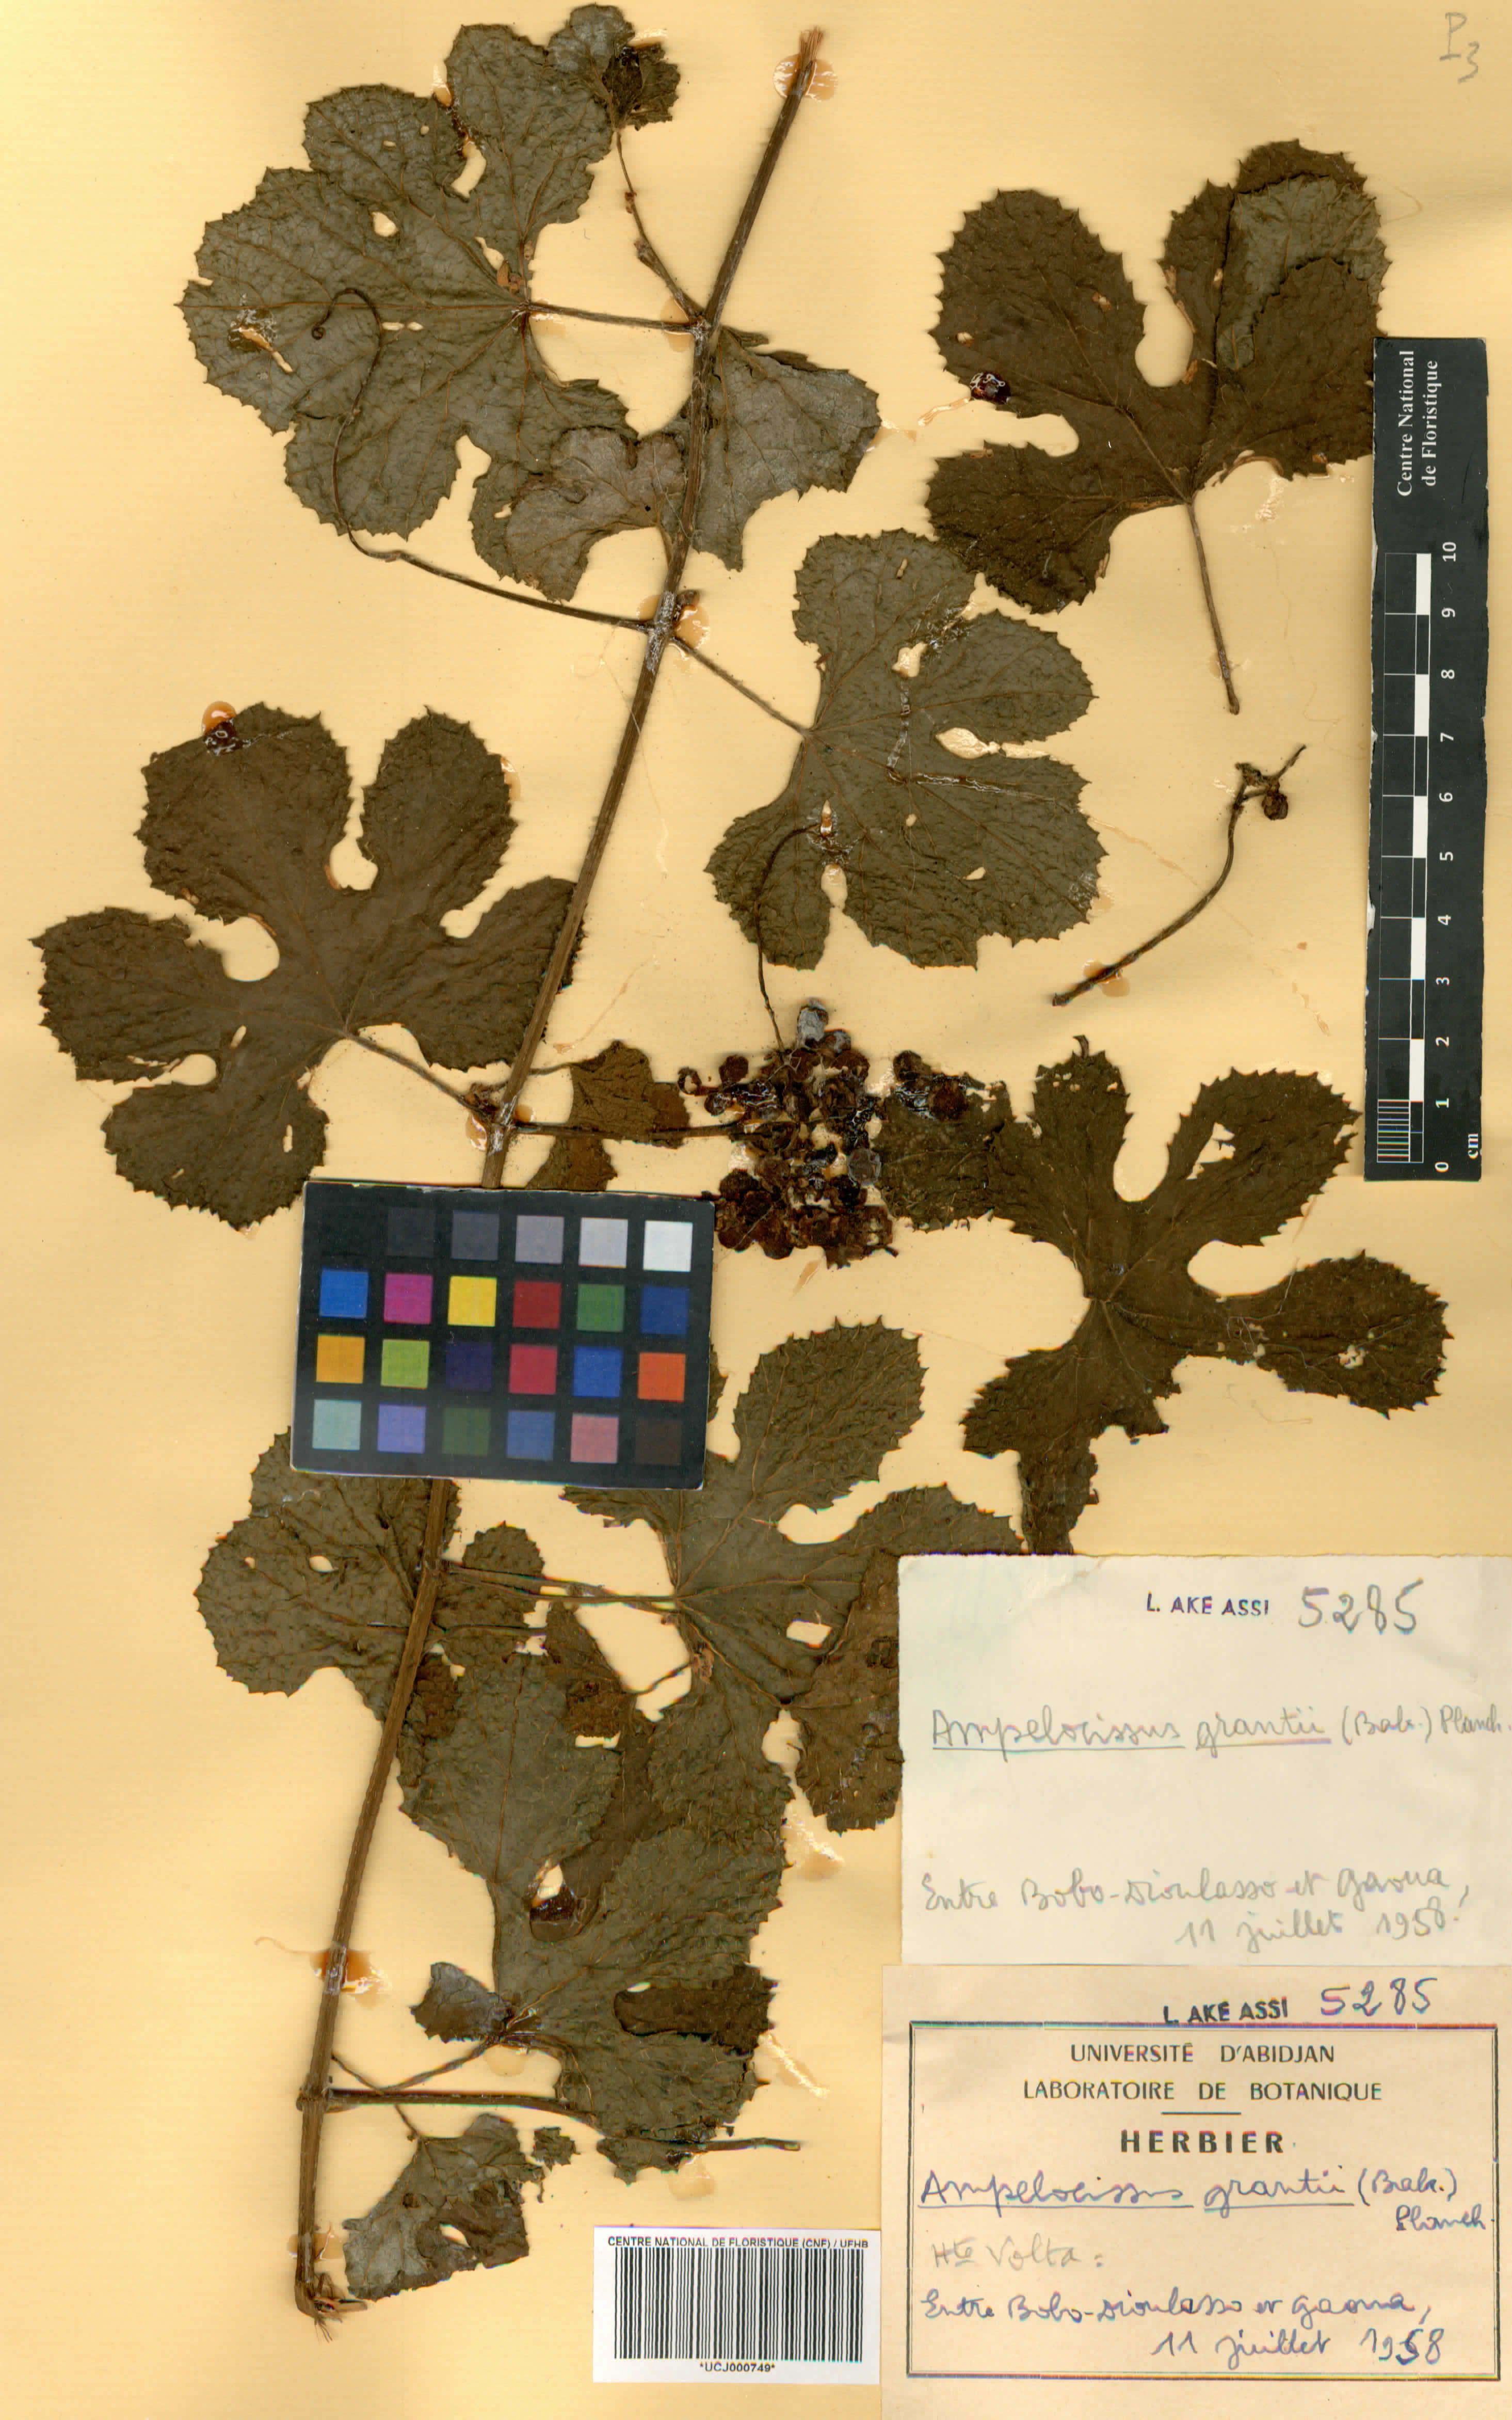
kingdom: Plantae
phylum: Tracheophyta
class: Magnoliopsida
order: Vitales
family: Vitaceae
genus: Ampelocissus
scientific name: Ampelocissus africana
